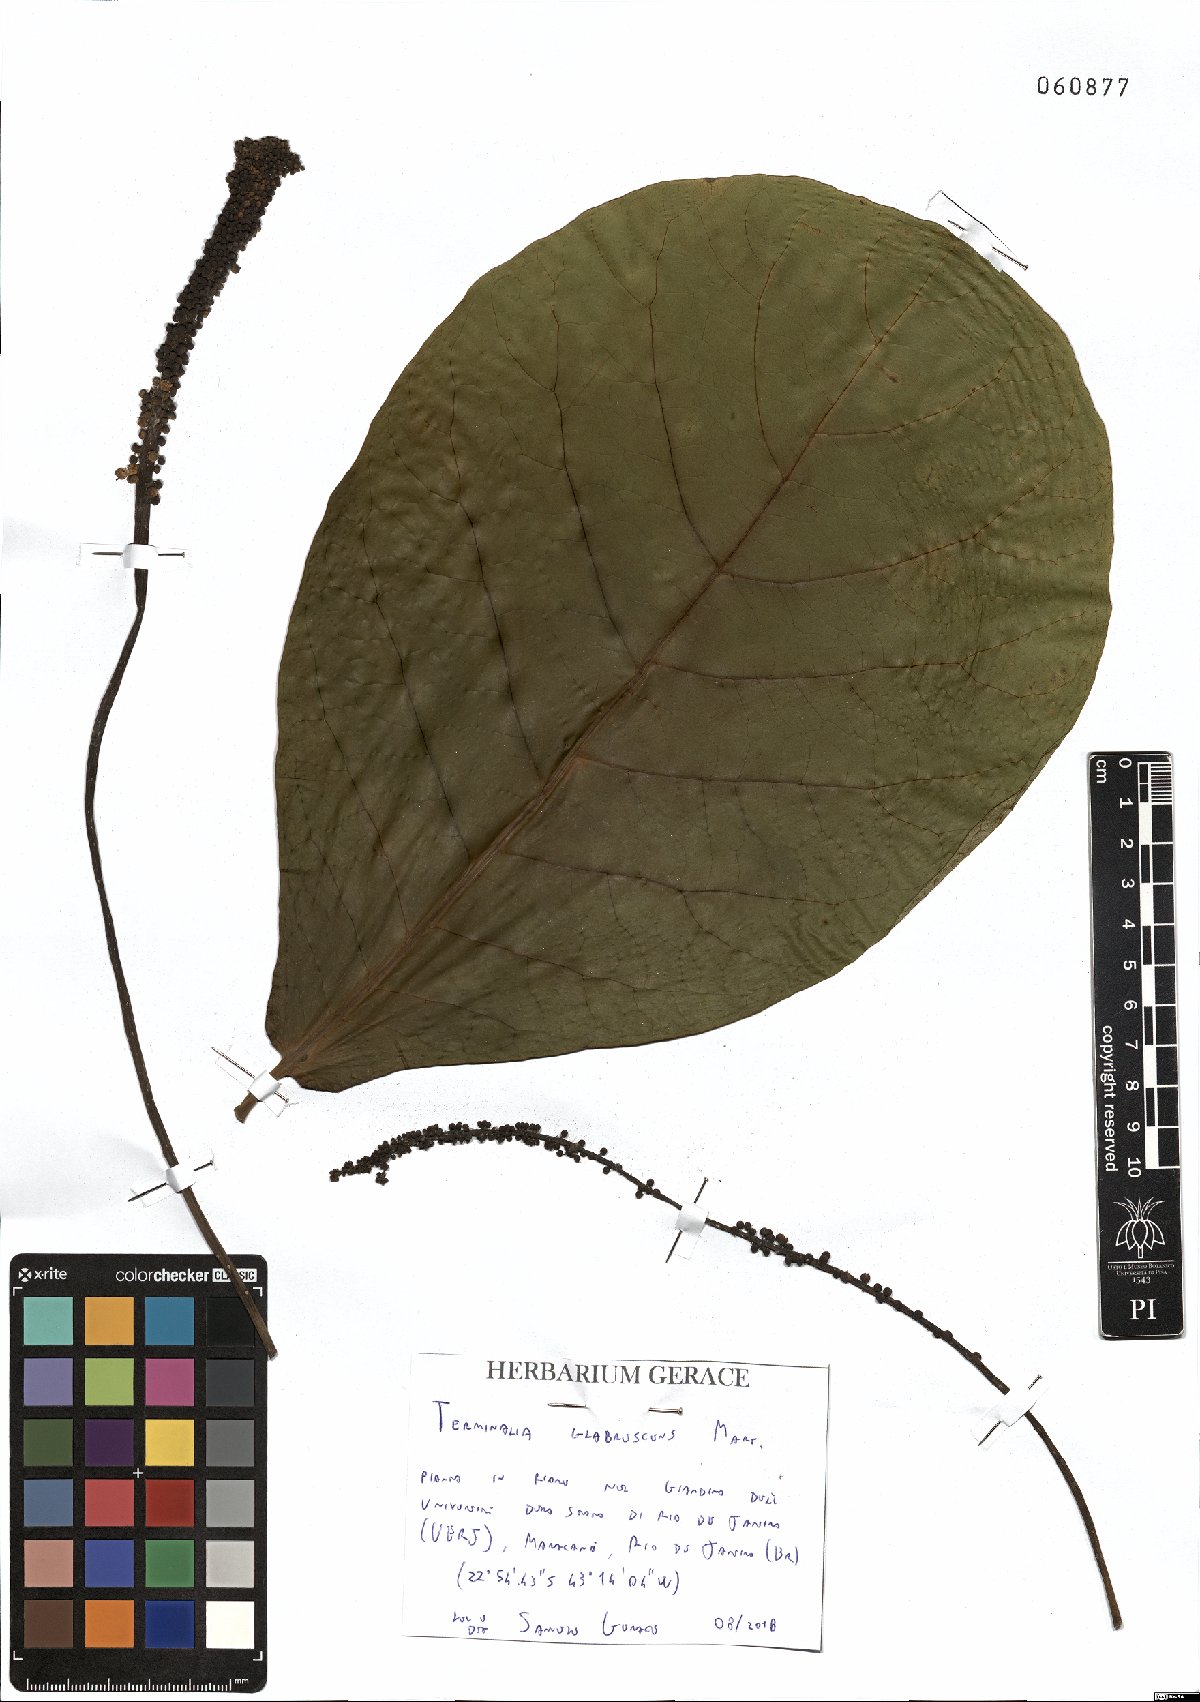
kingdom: Plantae
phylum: Tracheophyta
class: Magnoliopsida
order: Myrtales
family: Combretaceae
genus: Terminalia
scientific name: Terminalia glabrescens
